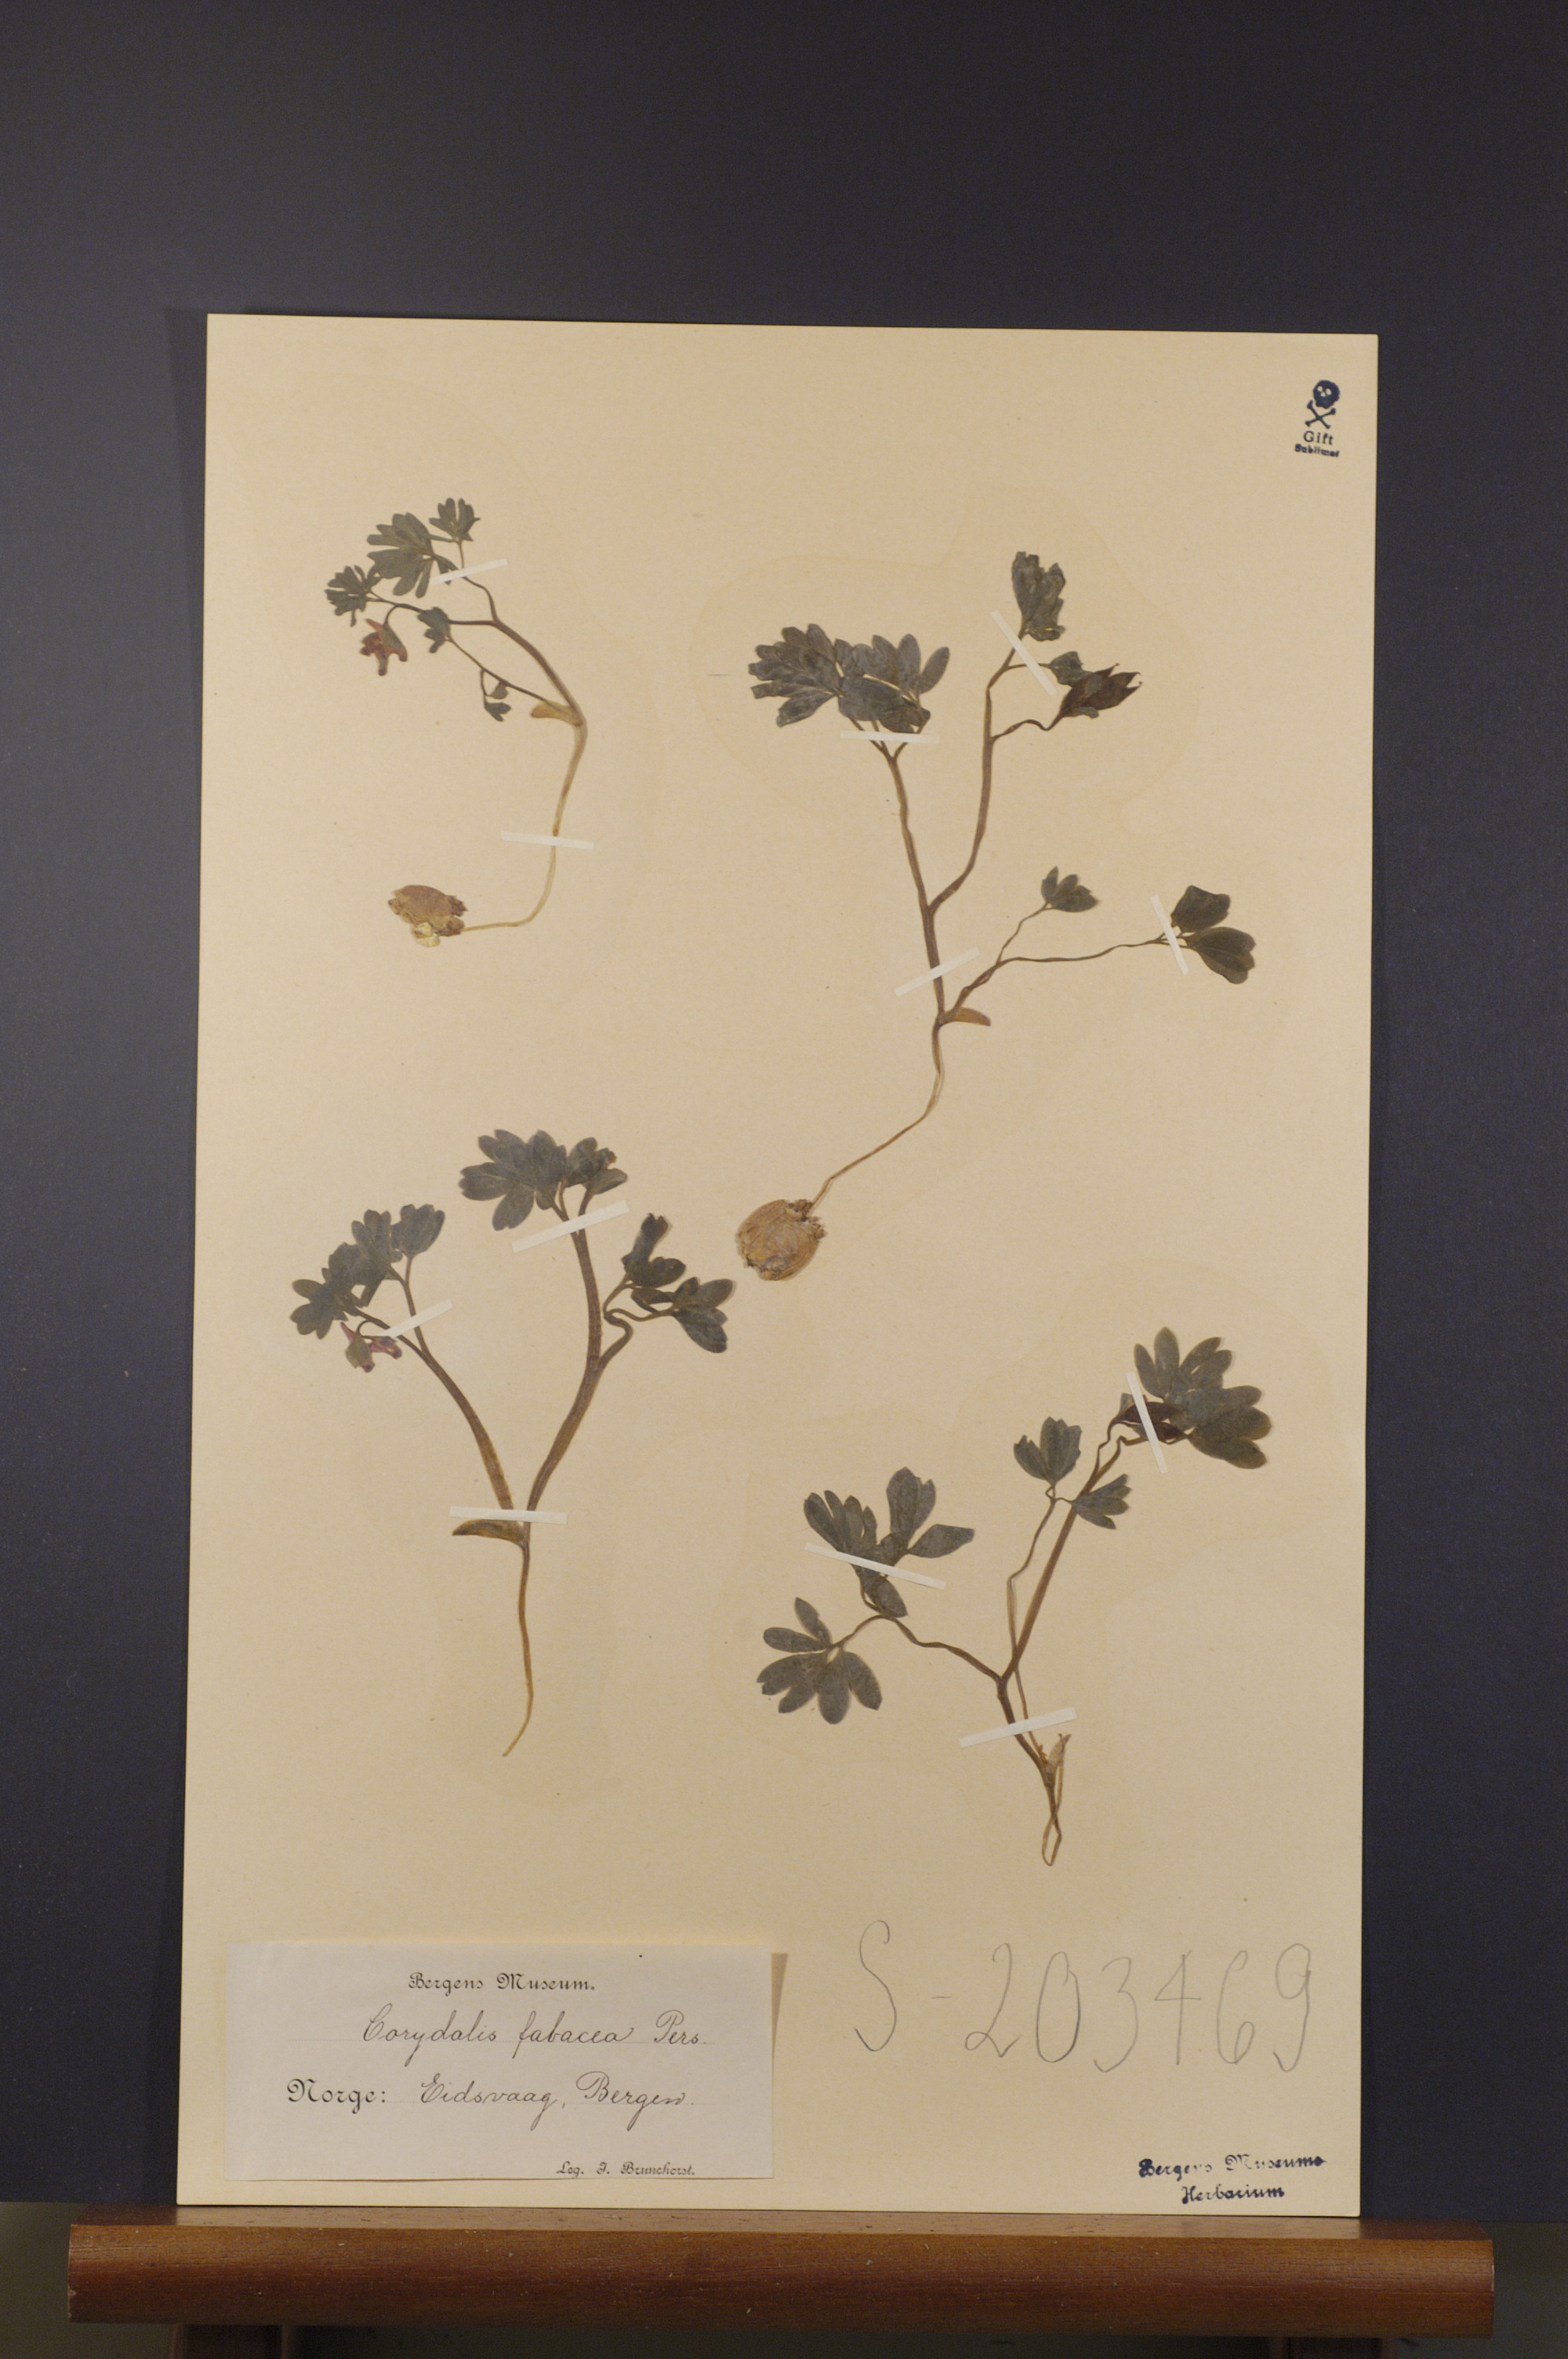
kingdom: Plantae
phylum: Tracheophyta
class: Magnoliopsida
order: Ranunculales
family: Papaveraceae
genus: Corydalis
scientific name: Corydalis intermedia
